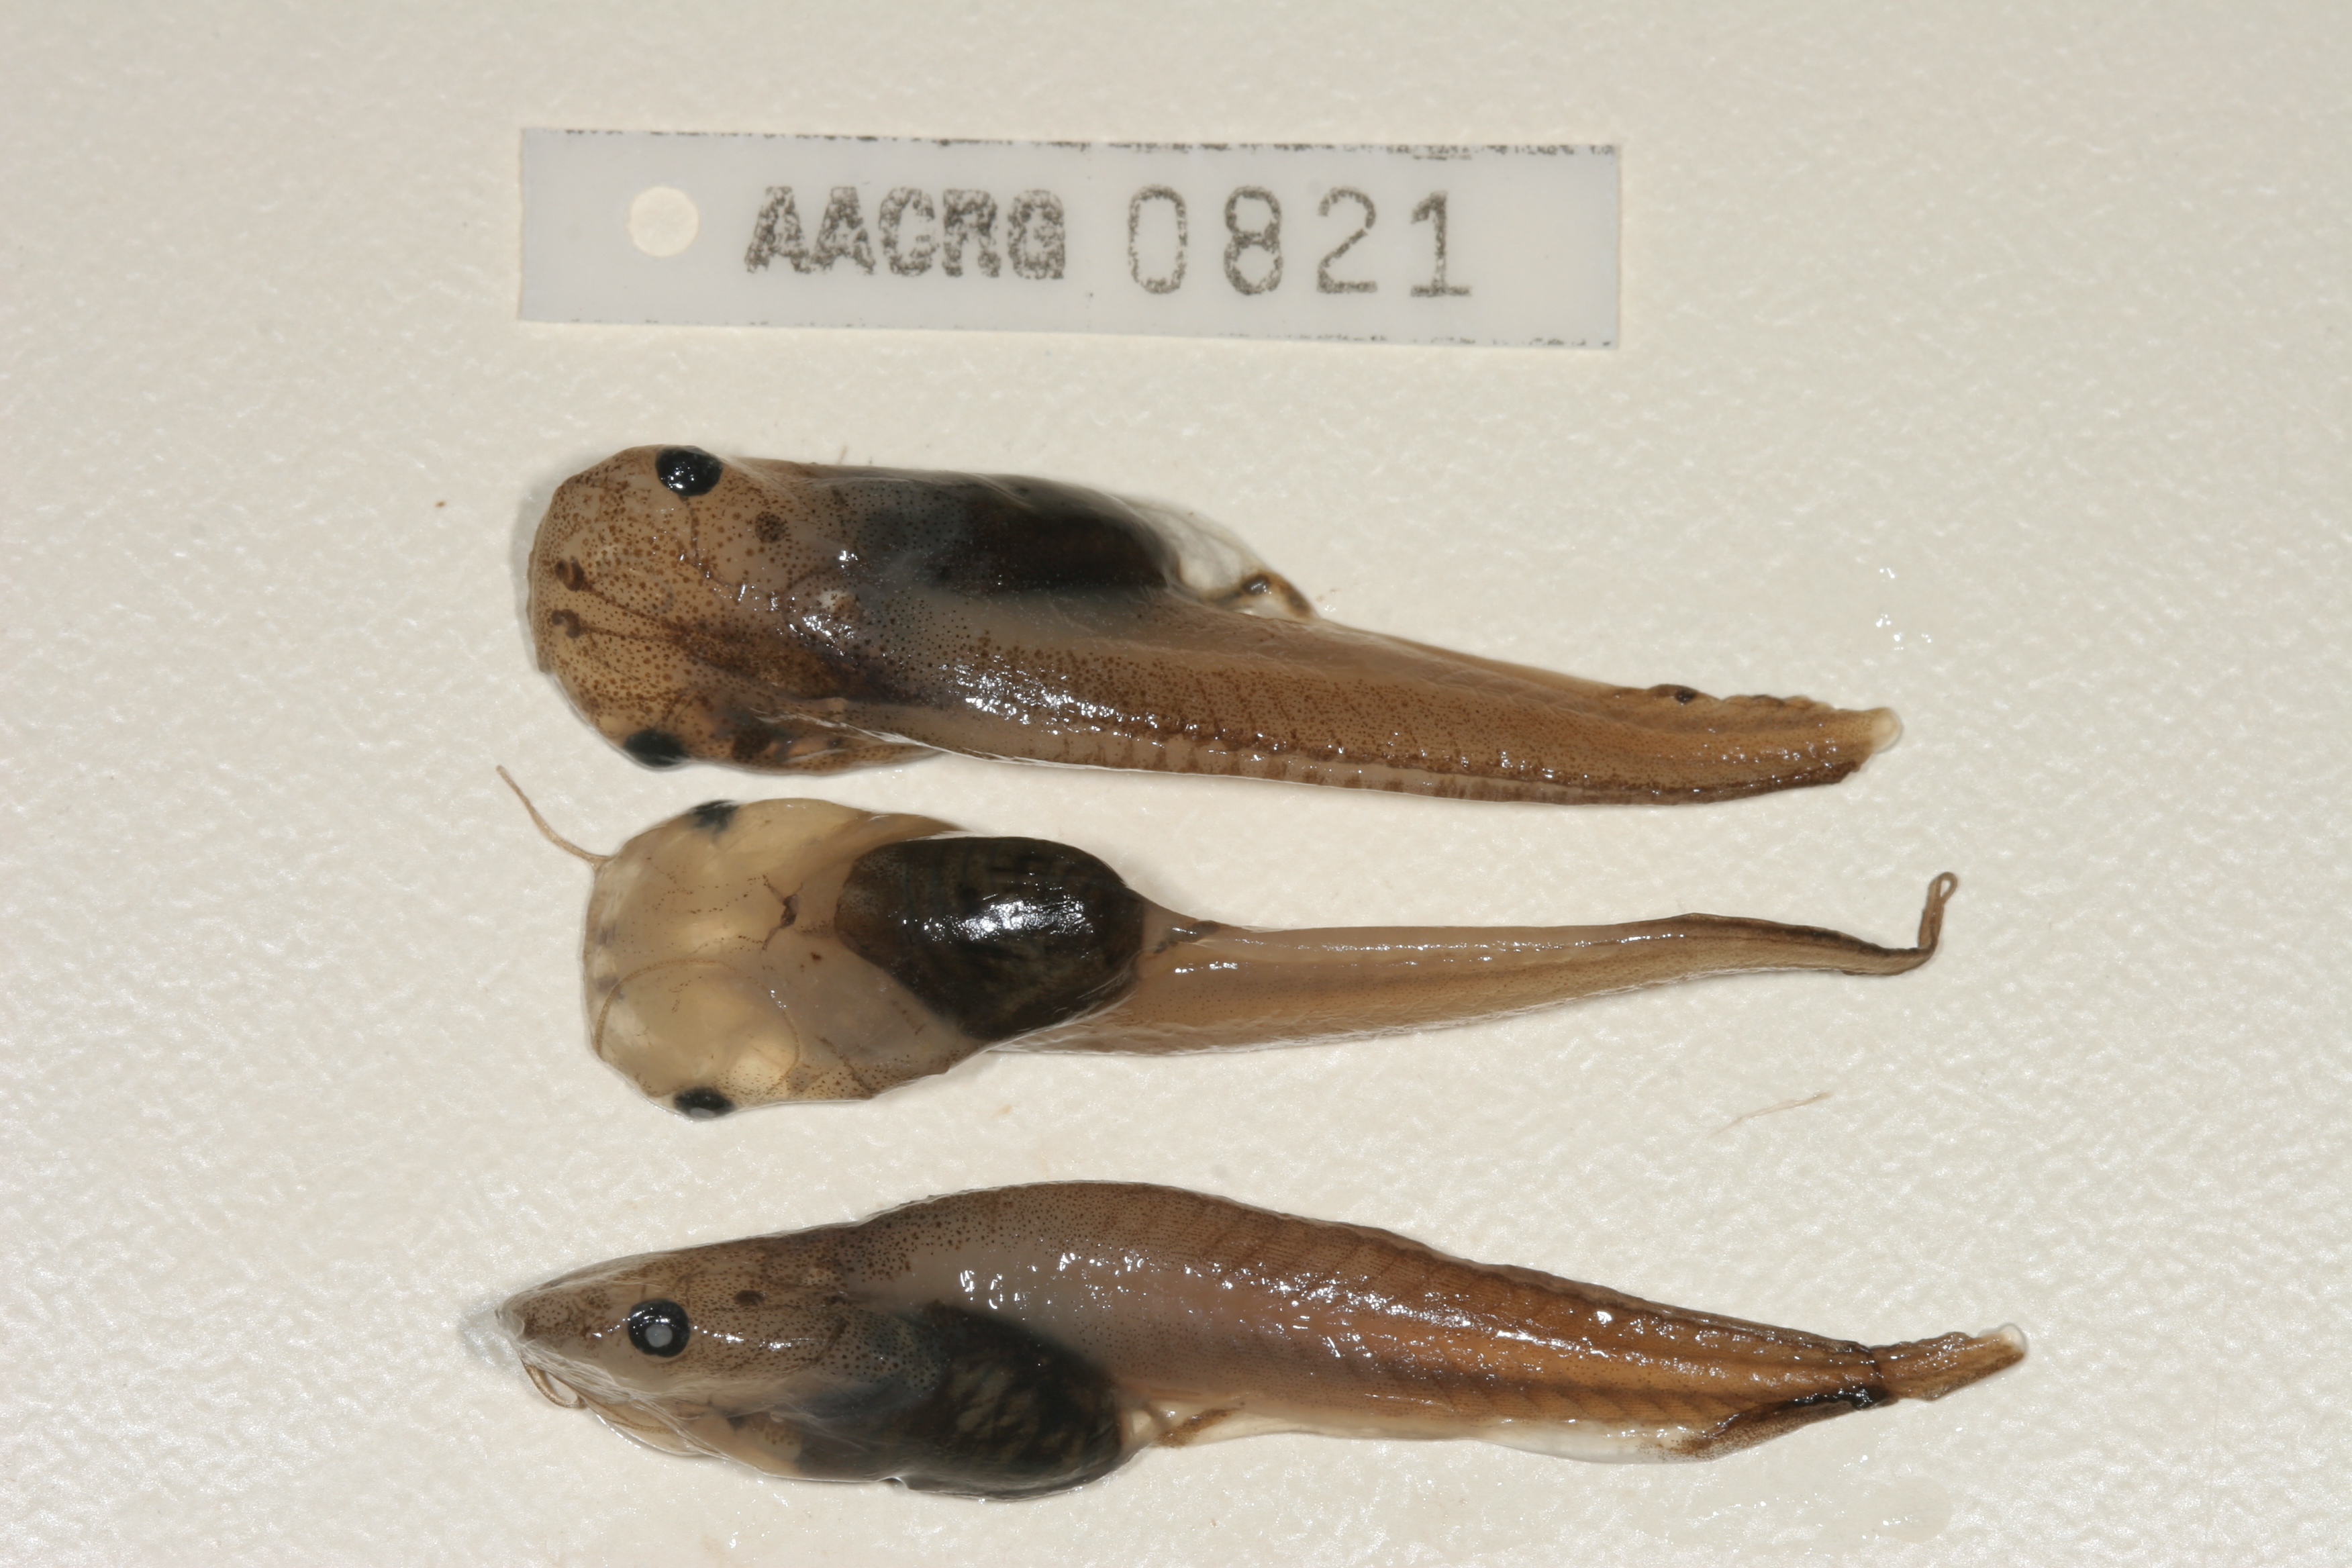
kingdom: Animalia
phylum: Chordata
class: Amphibia
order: Anura
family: Pipidae
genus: Xenopus
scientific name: Xenopus laevis
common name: African clawed frog
